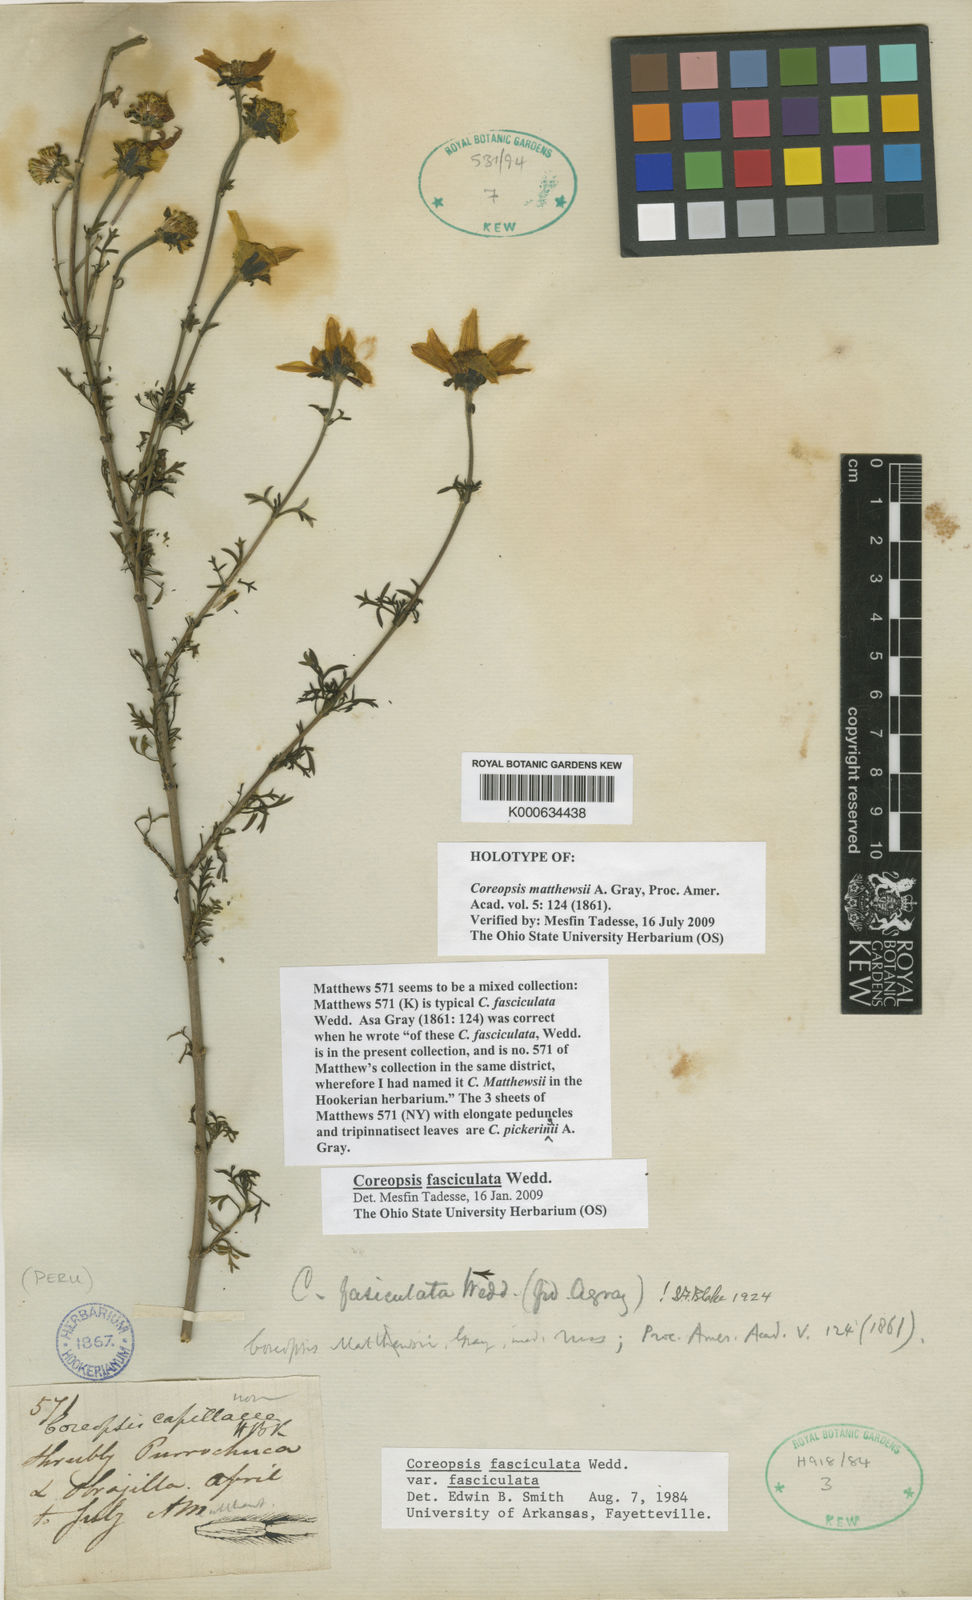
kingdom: Plantae
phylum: Tracheophyta
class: Magnoliopsida
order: Asterales
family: Asteraceae
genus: Coreopsis
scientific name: Coreopsis fasciculata
